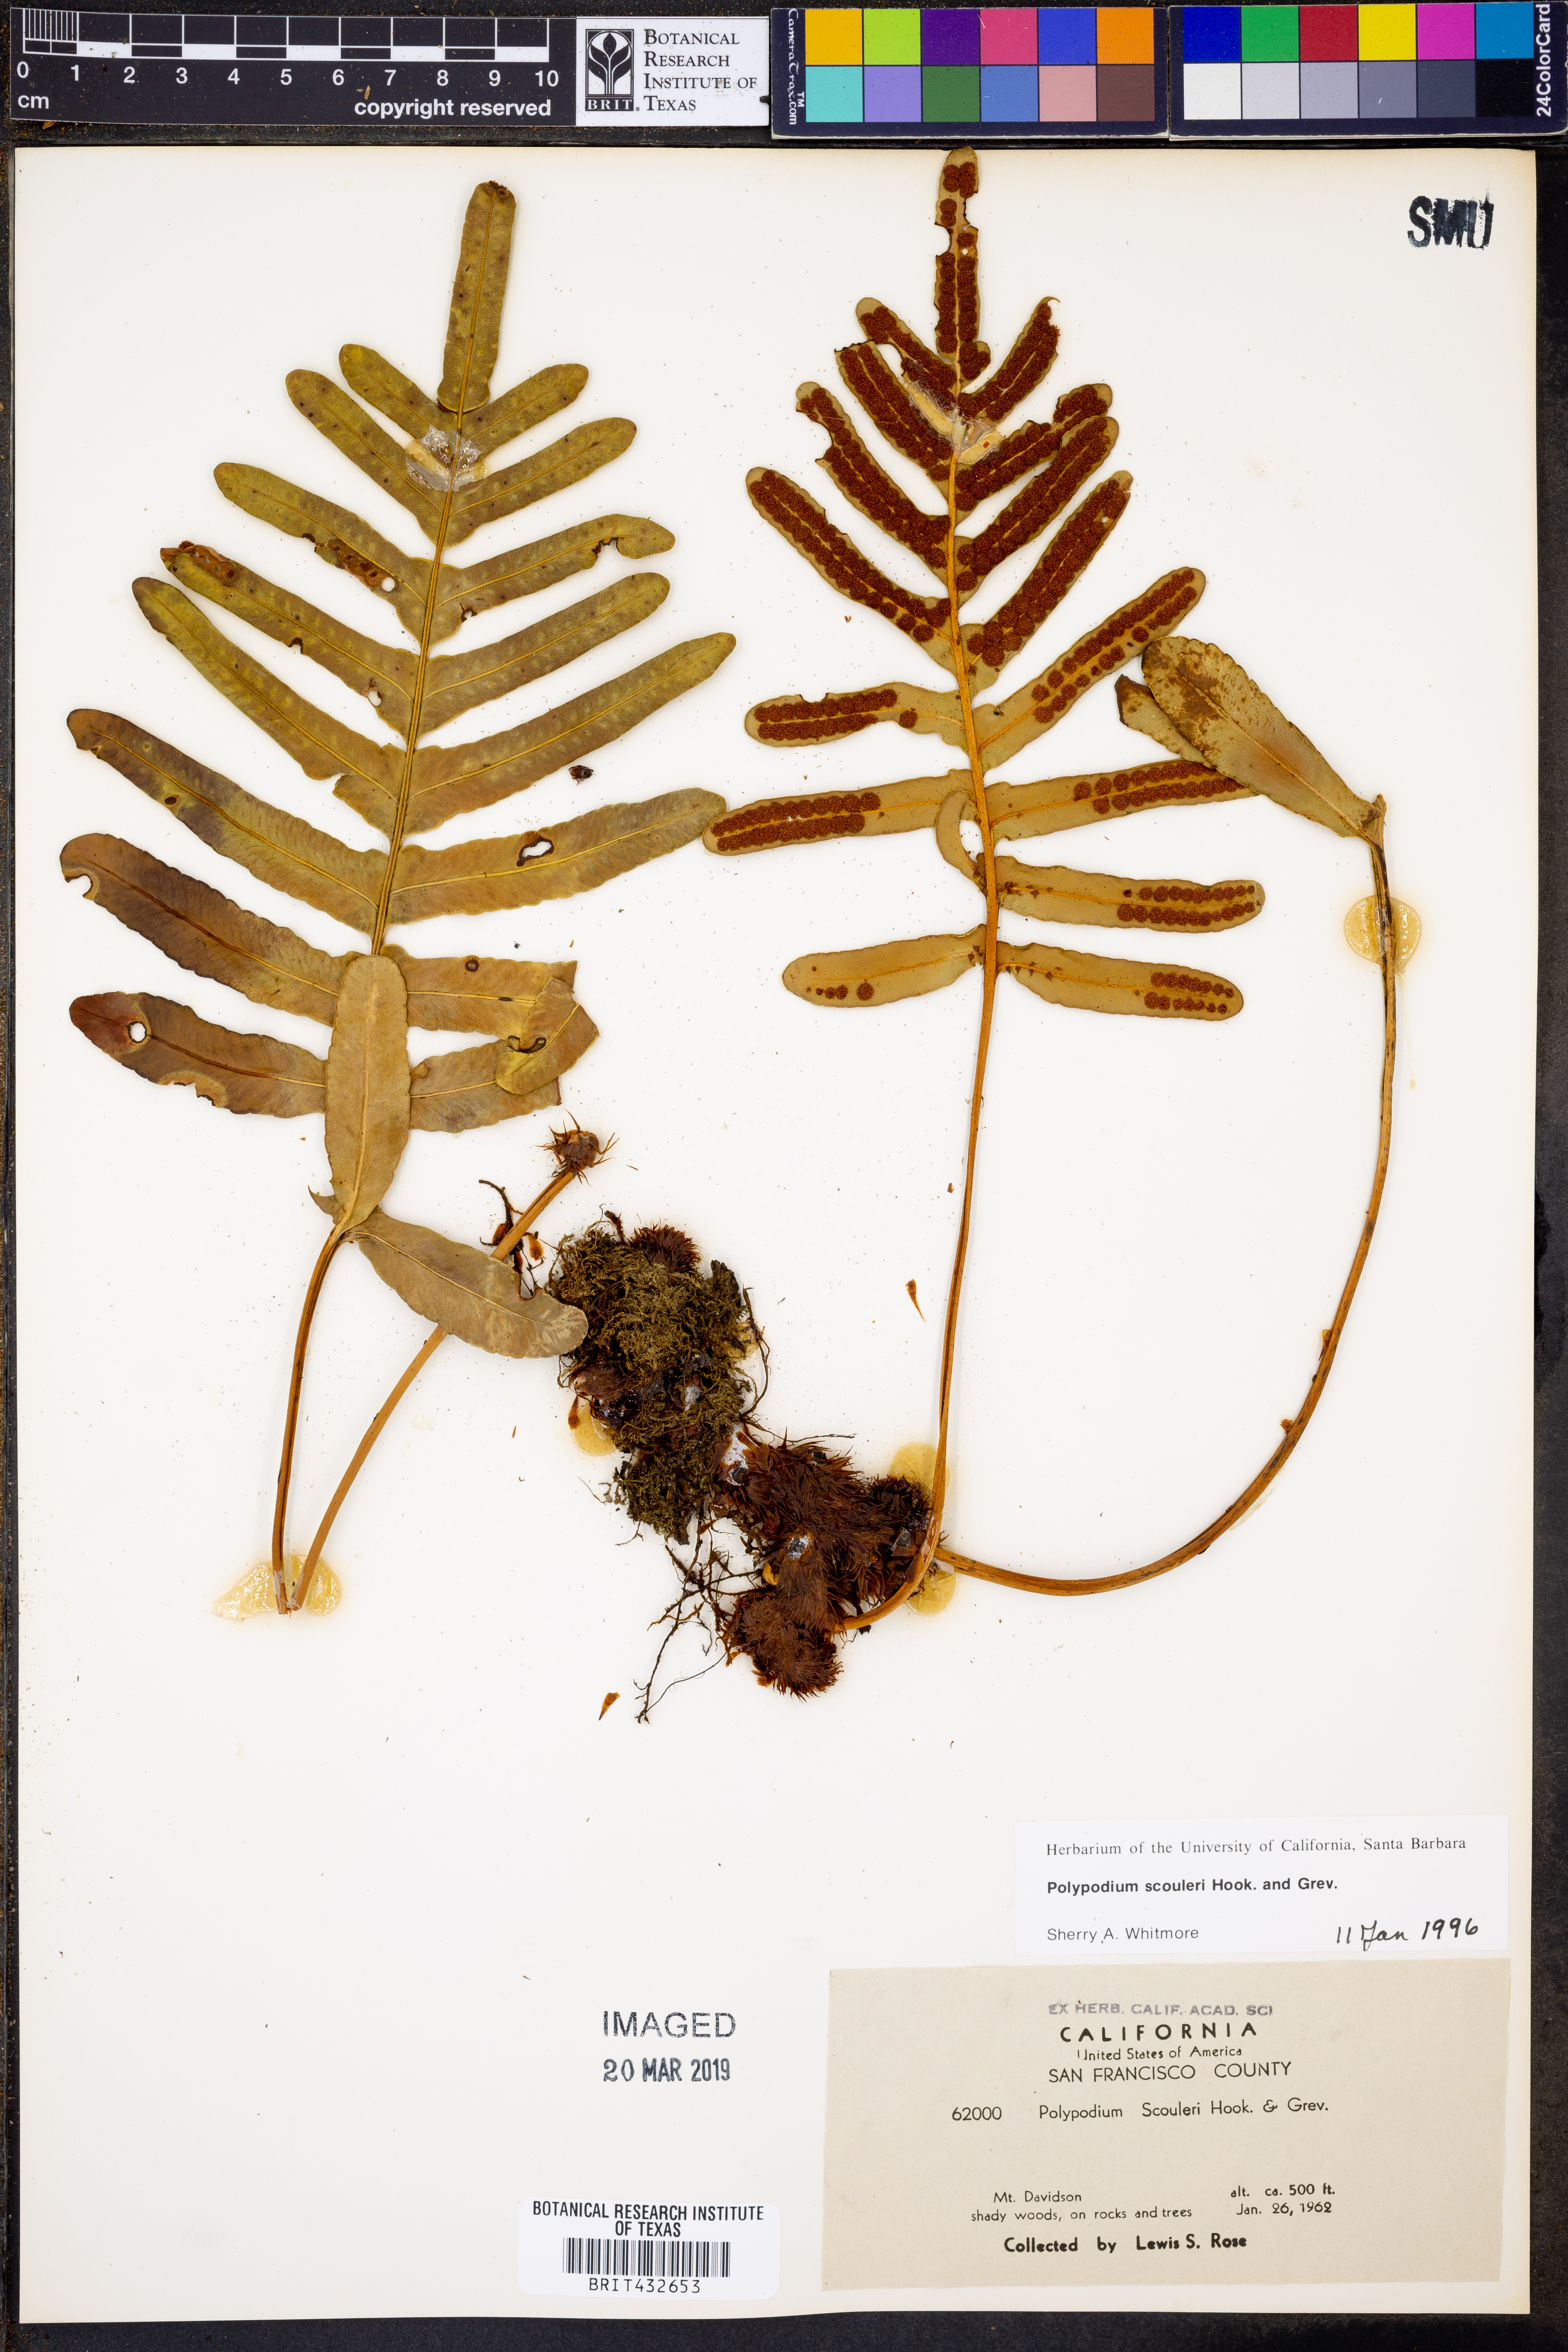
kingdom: Plantae
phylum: Tracheophyta
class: Polypodiopsida
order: Polypodiales
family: Polypodiaceae
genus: Polypodium
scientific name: Polypodium scouleri
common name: Scouler's polypody
